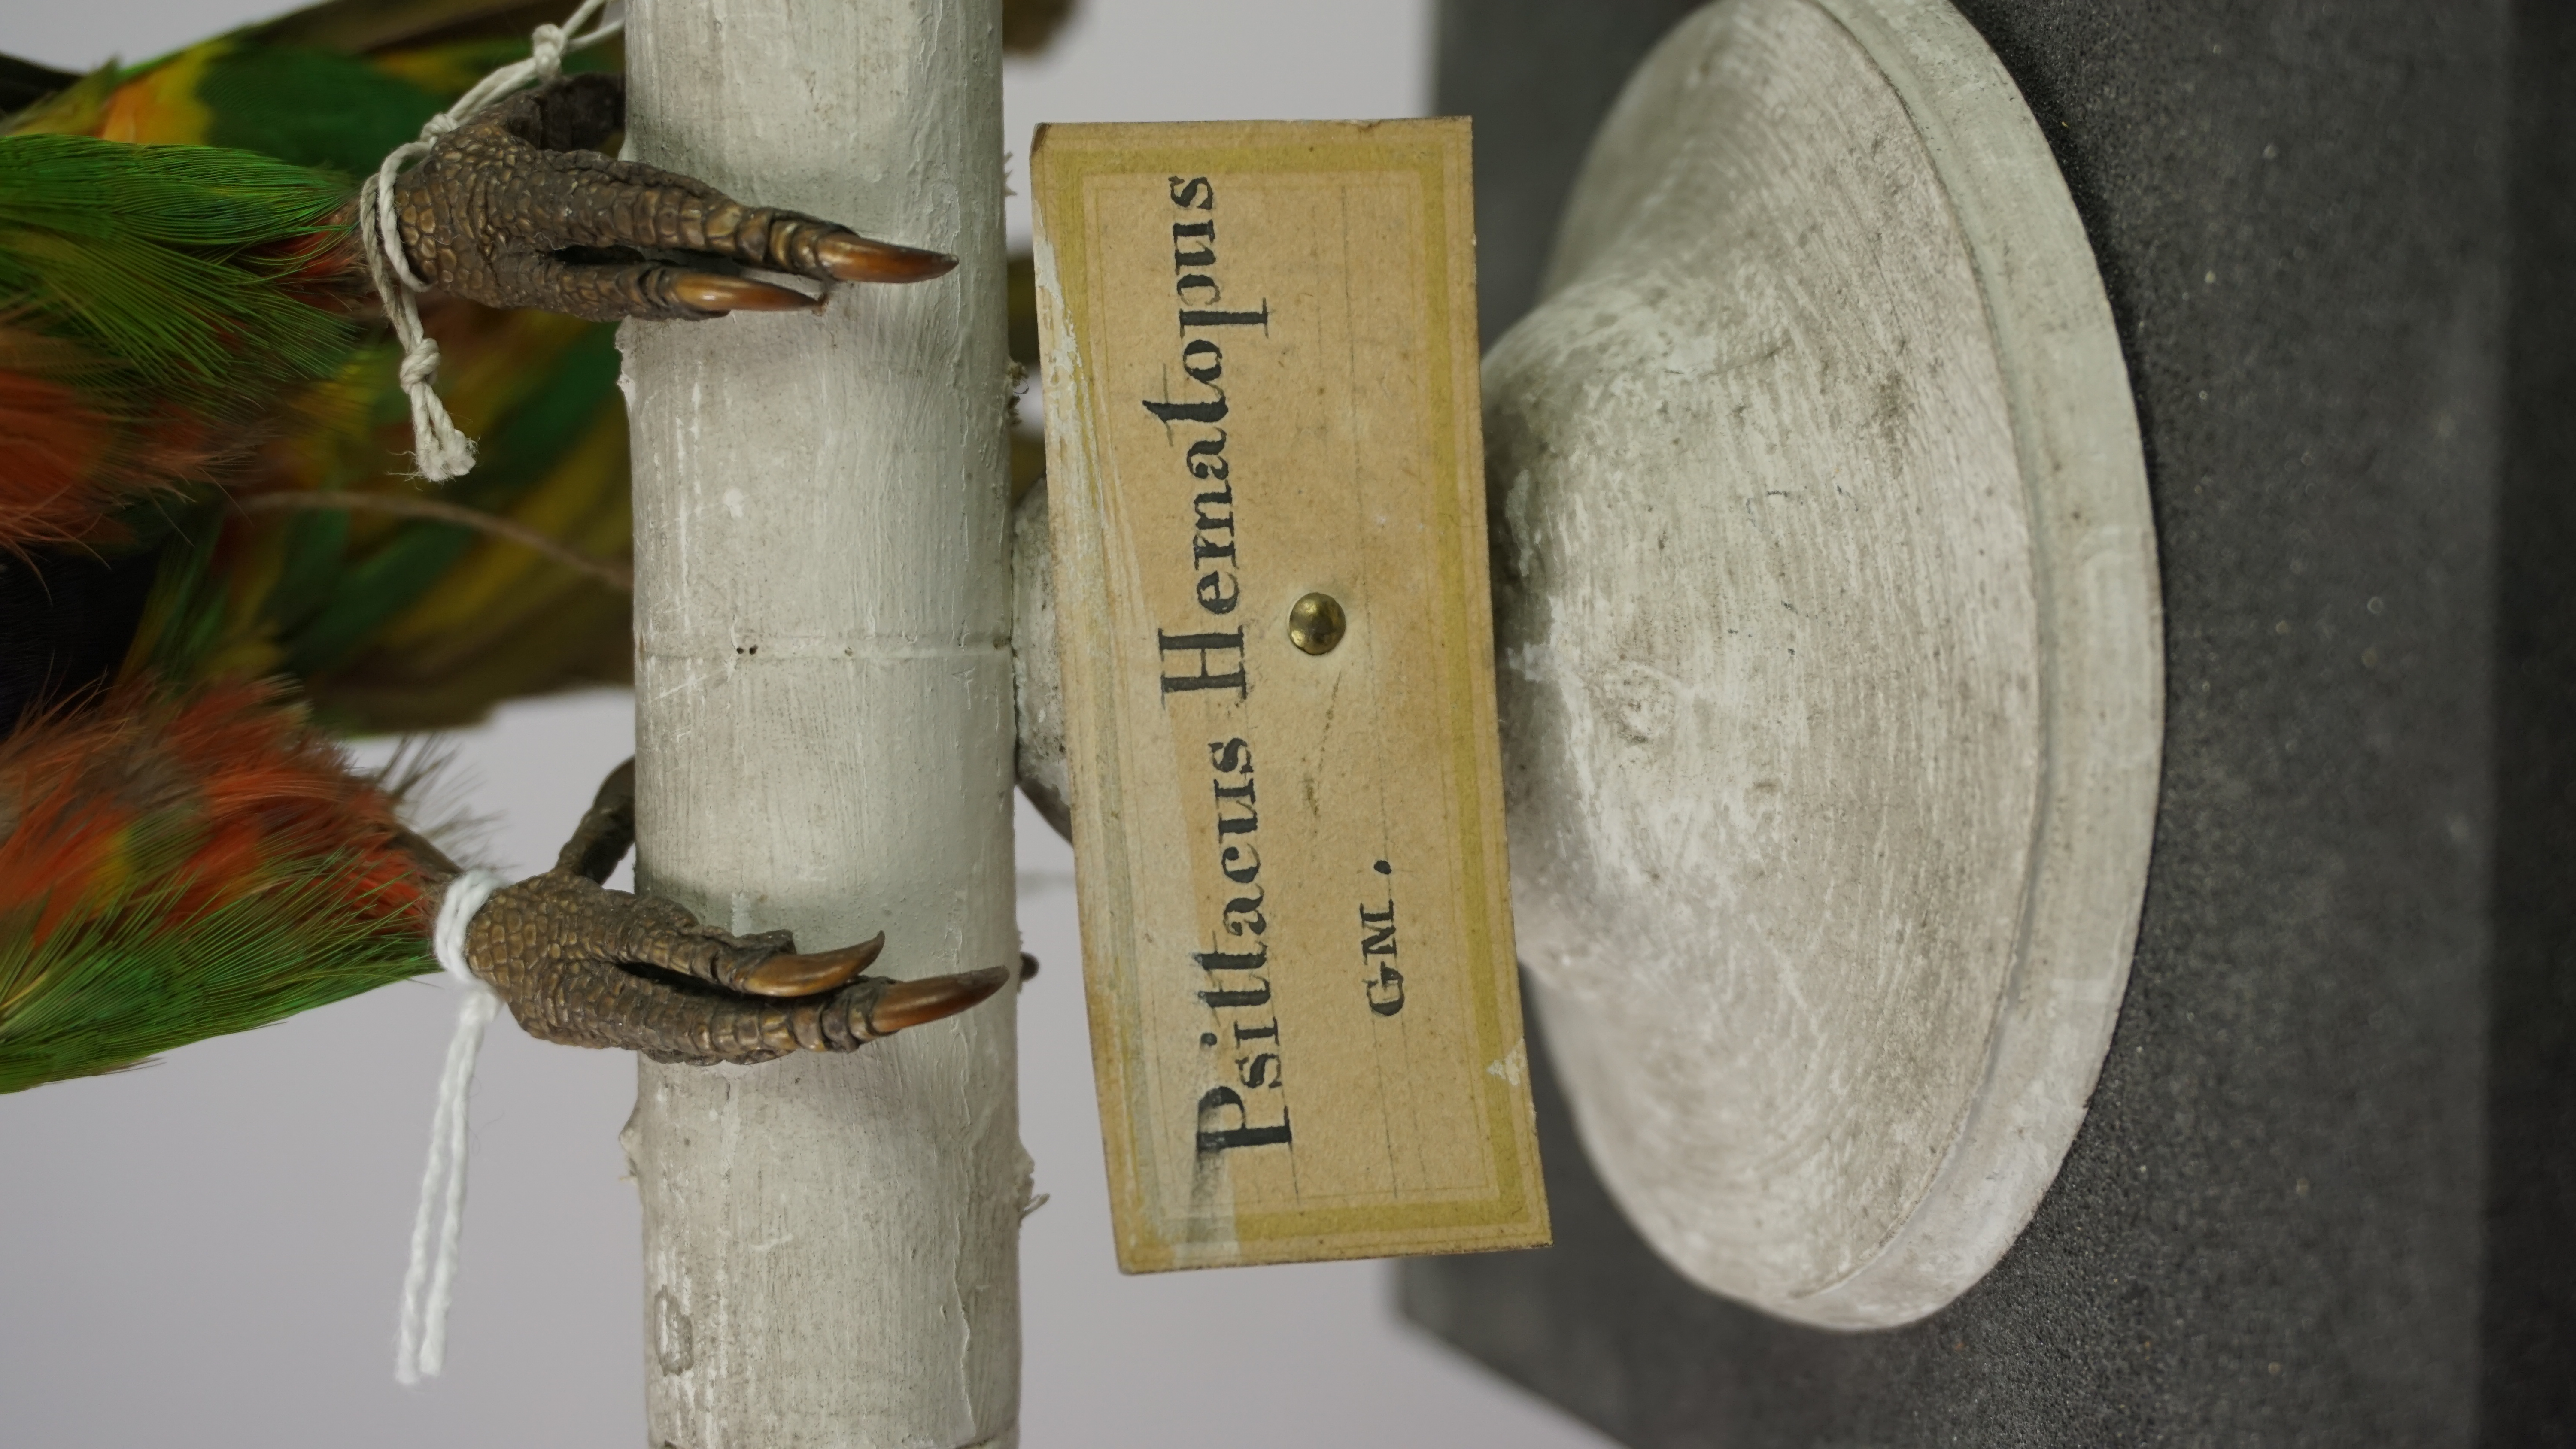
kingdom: Animalia
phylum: Chordata
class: Aves
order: Psittaciformes
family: Psittacidae
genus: Trichoglossus
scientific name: Trichoglossus haematodus
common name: Coconut lorikeet
